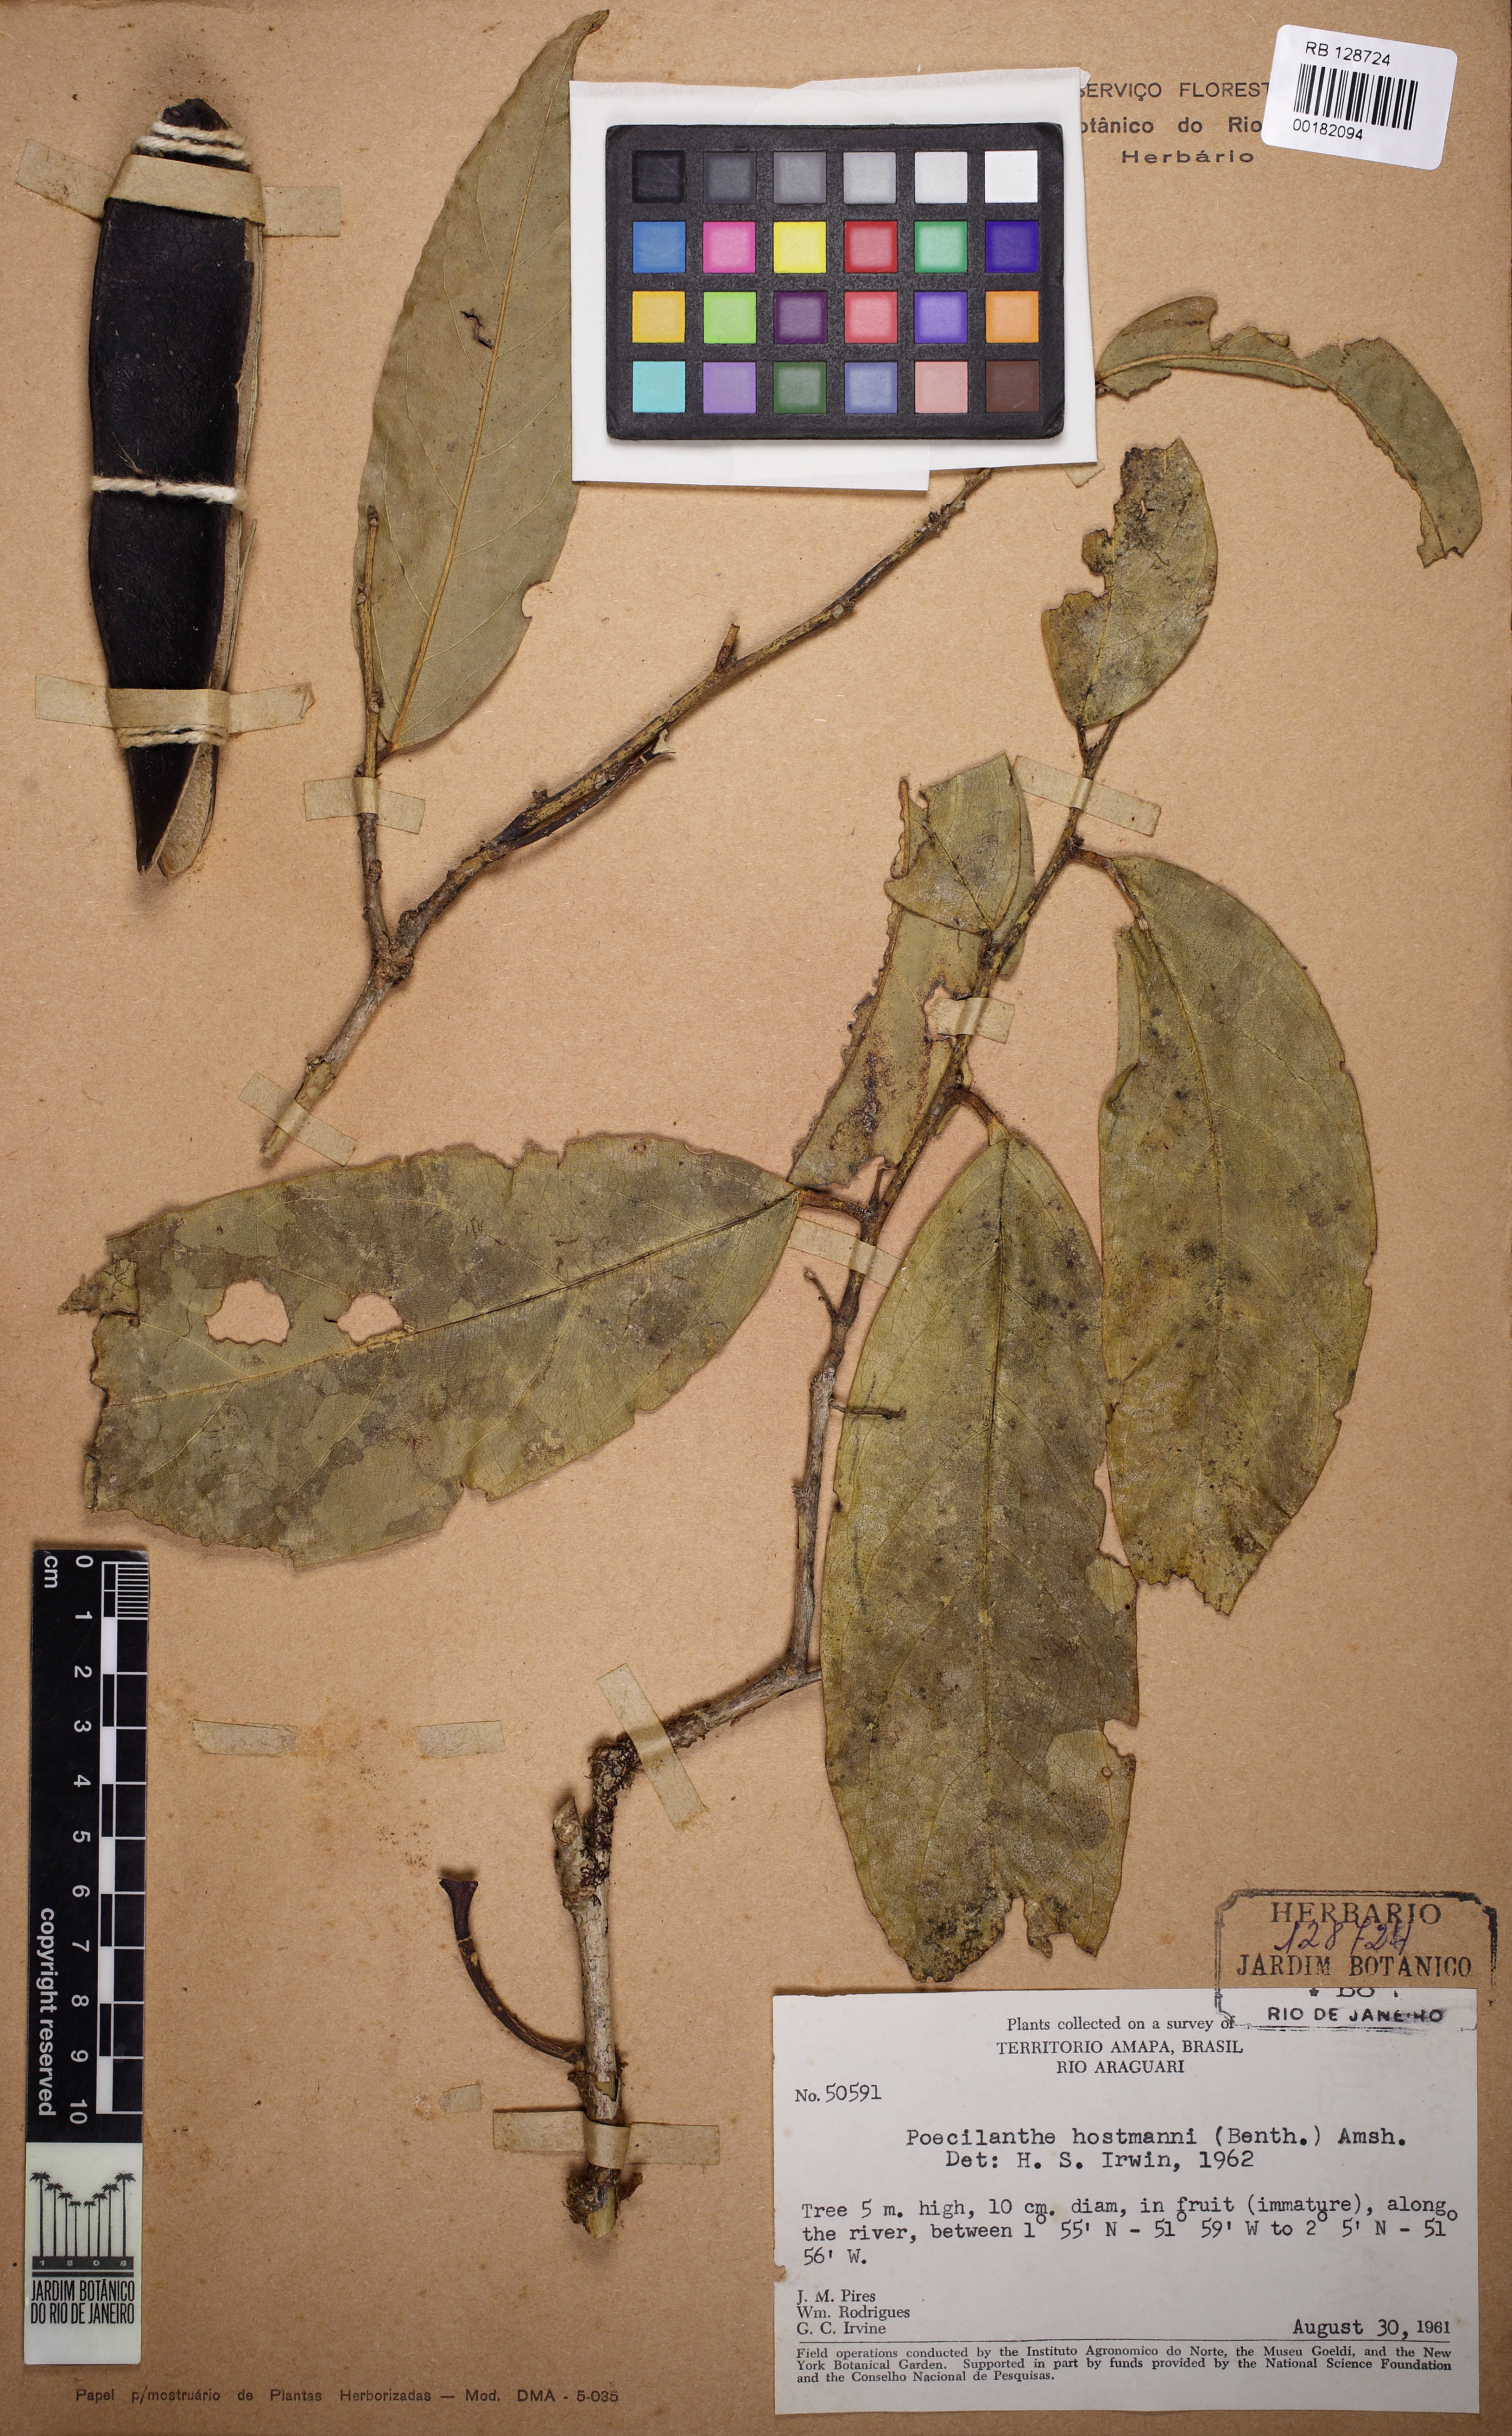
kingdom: Plantae
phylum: Tracheophyta
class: Magnoliopsida
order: Fabales
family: Fabaceae
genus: Limadendron
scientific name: Limadendron hostmannii
